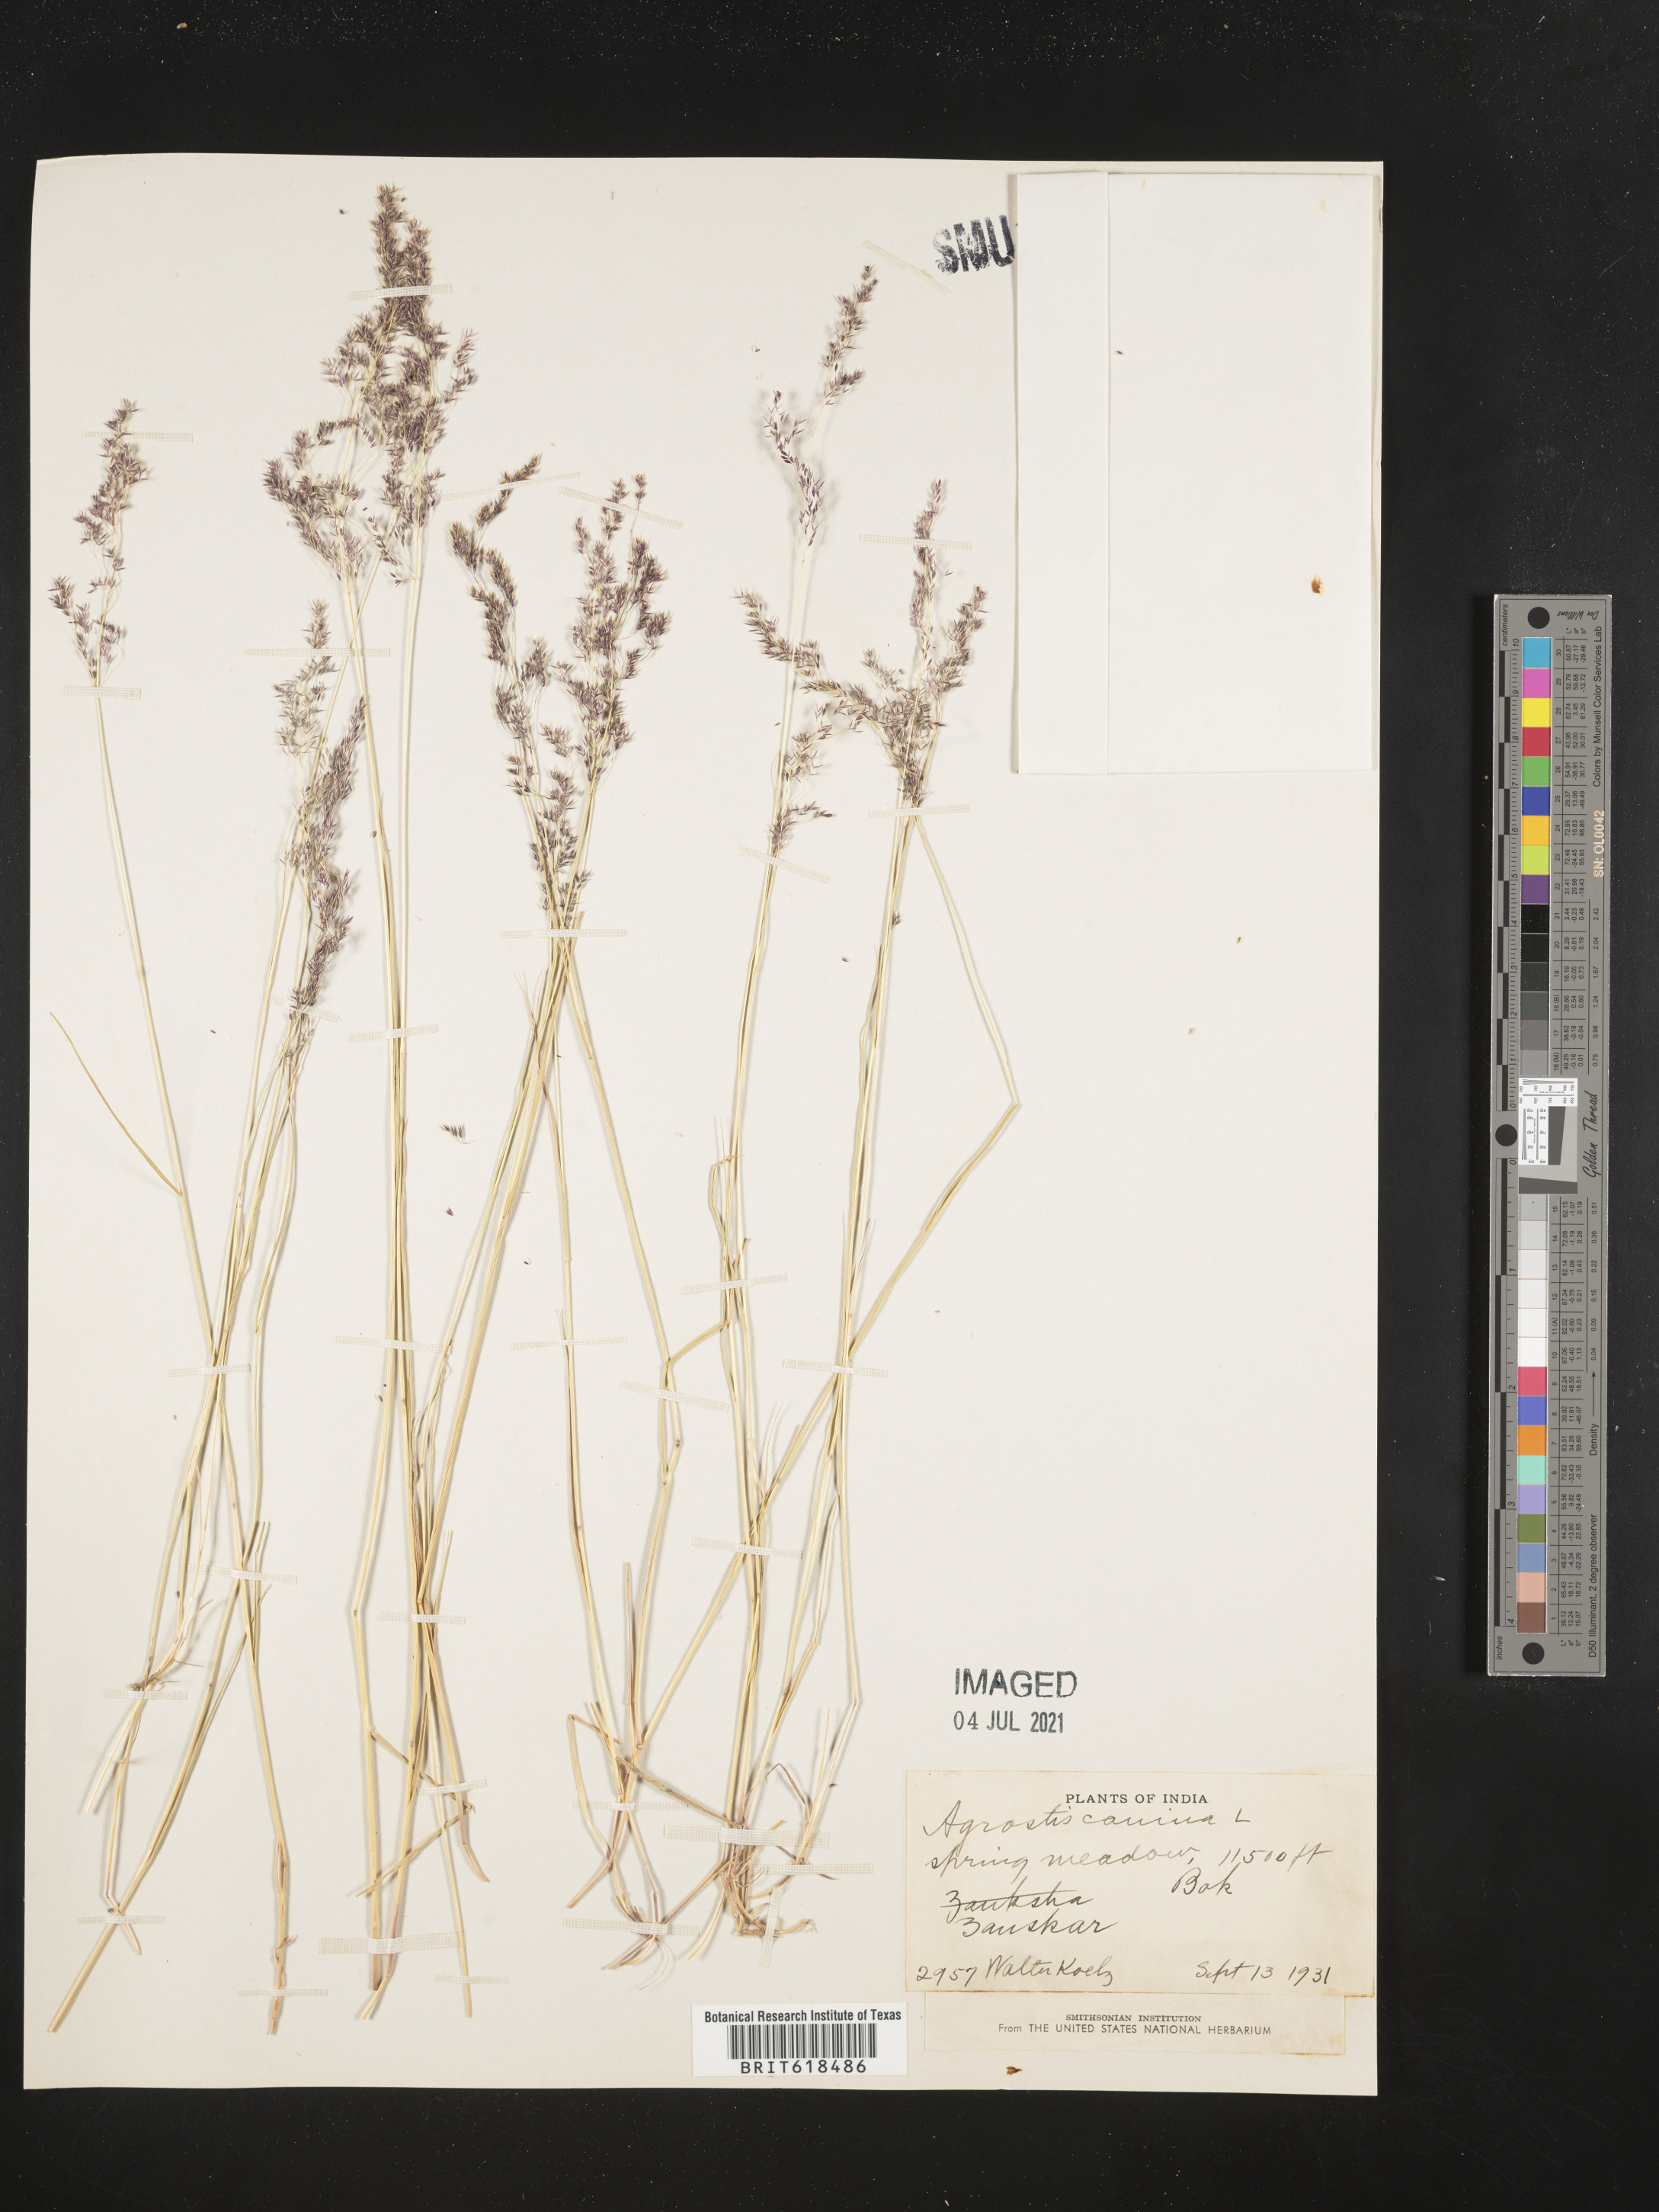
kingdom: Plantae
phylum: Tracheophyta
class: Liliopsida
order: Poales
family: Poaceae
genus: Agrostis
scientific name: Agrostis canina
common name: Velvet bent
